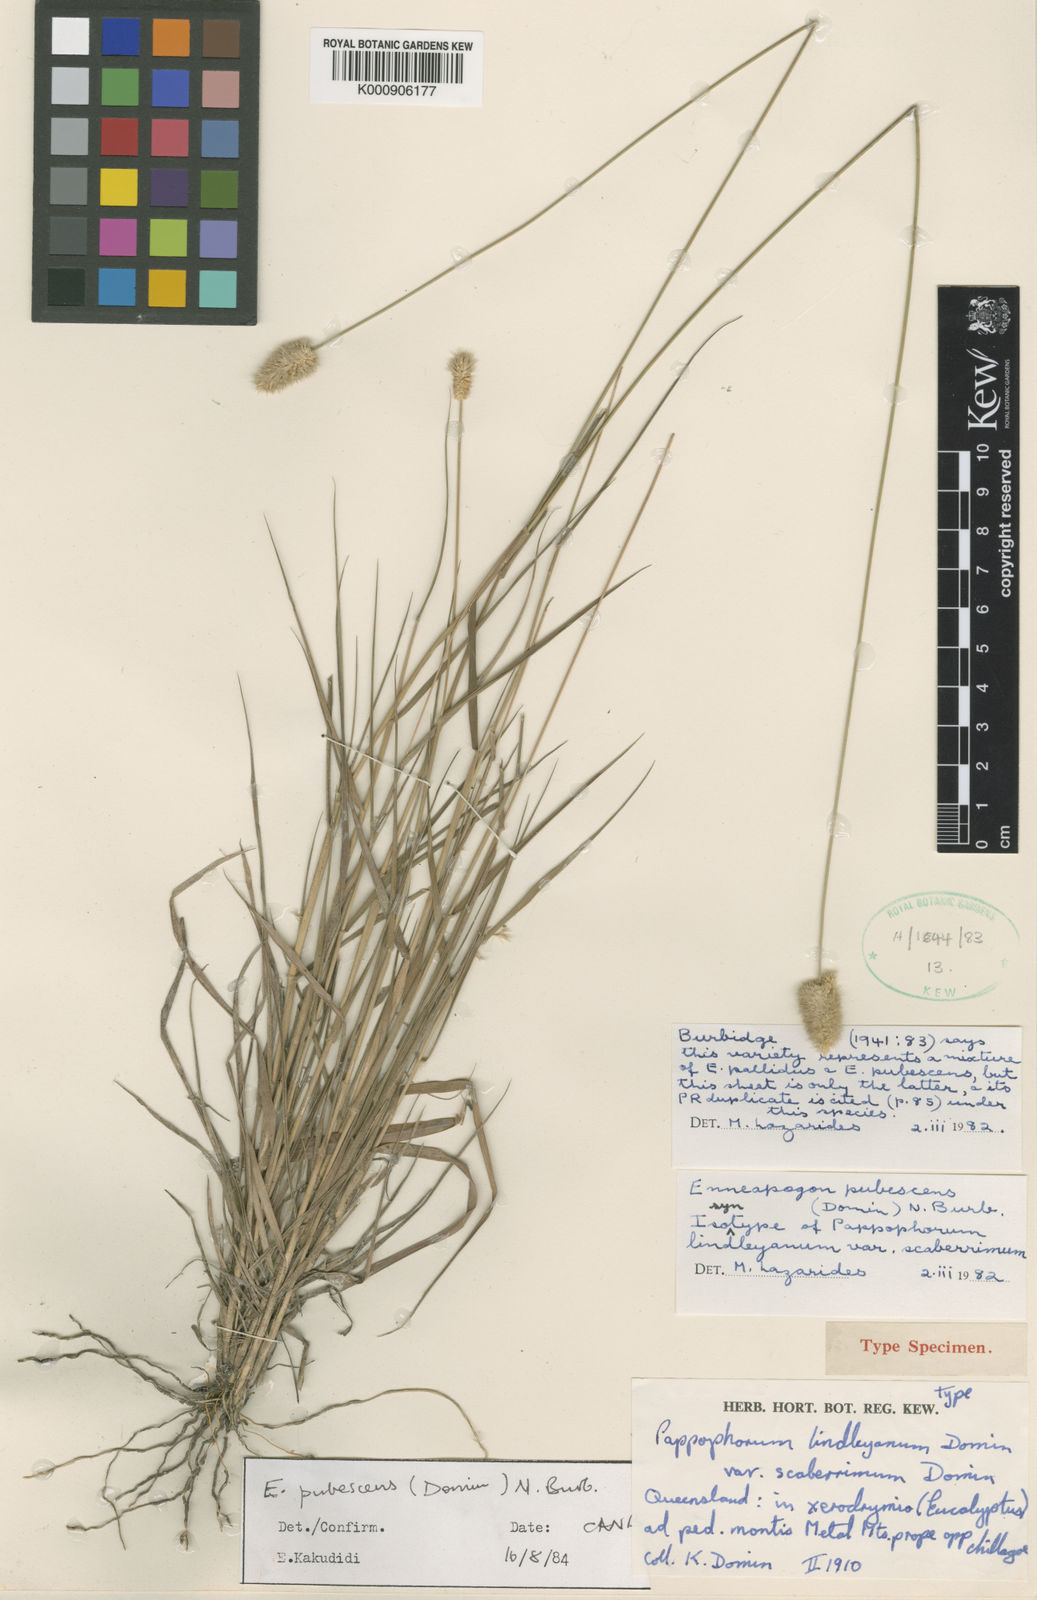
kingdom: Plantae
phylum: Tracheophyta
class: Liliopsida
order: Poales
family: Poaceae
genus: Enneapogon
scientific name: Enneapogon lindleyanus
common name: Conetop nineawn
